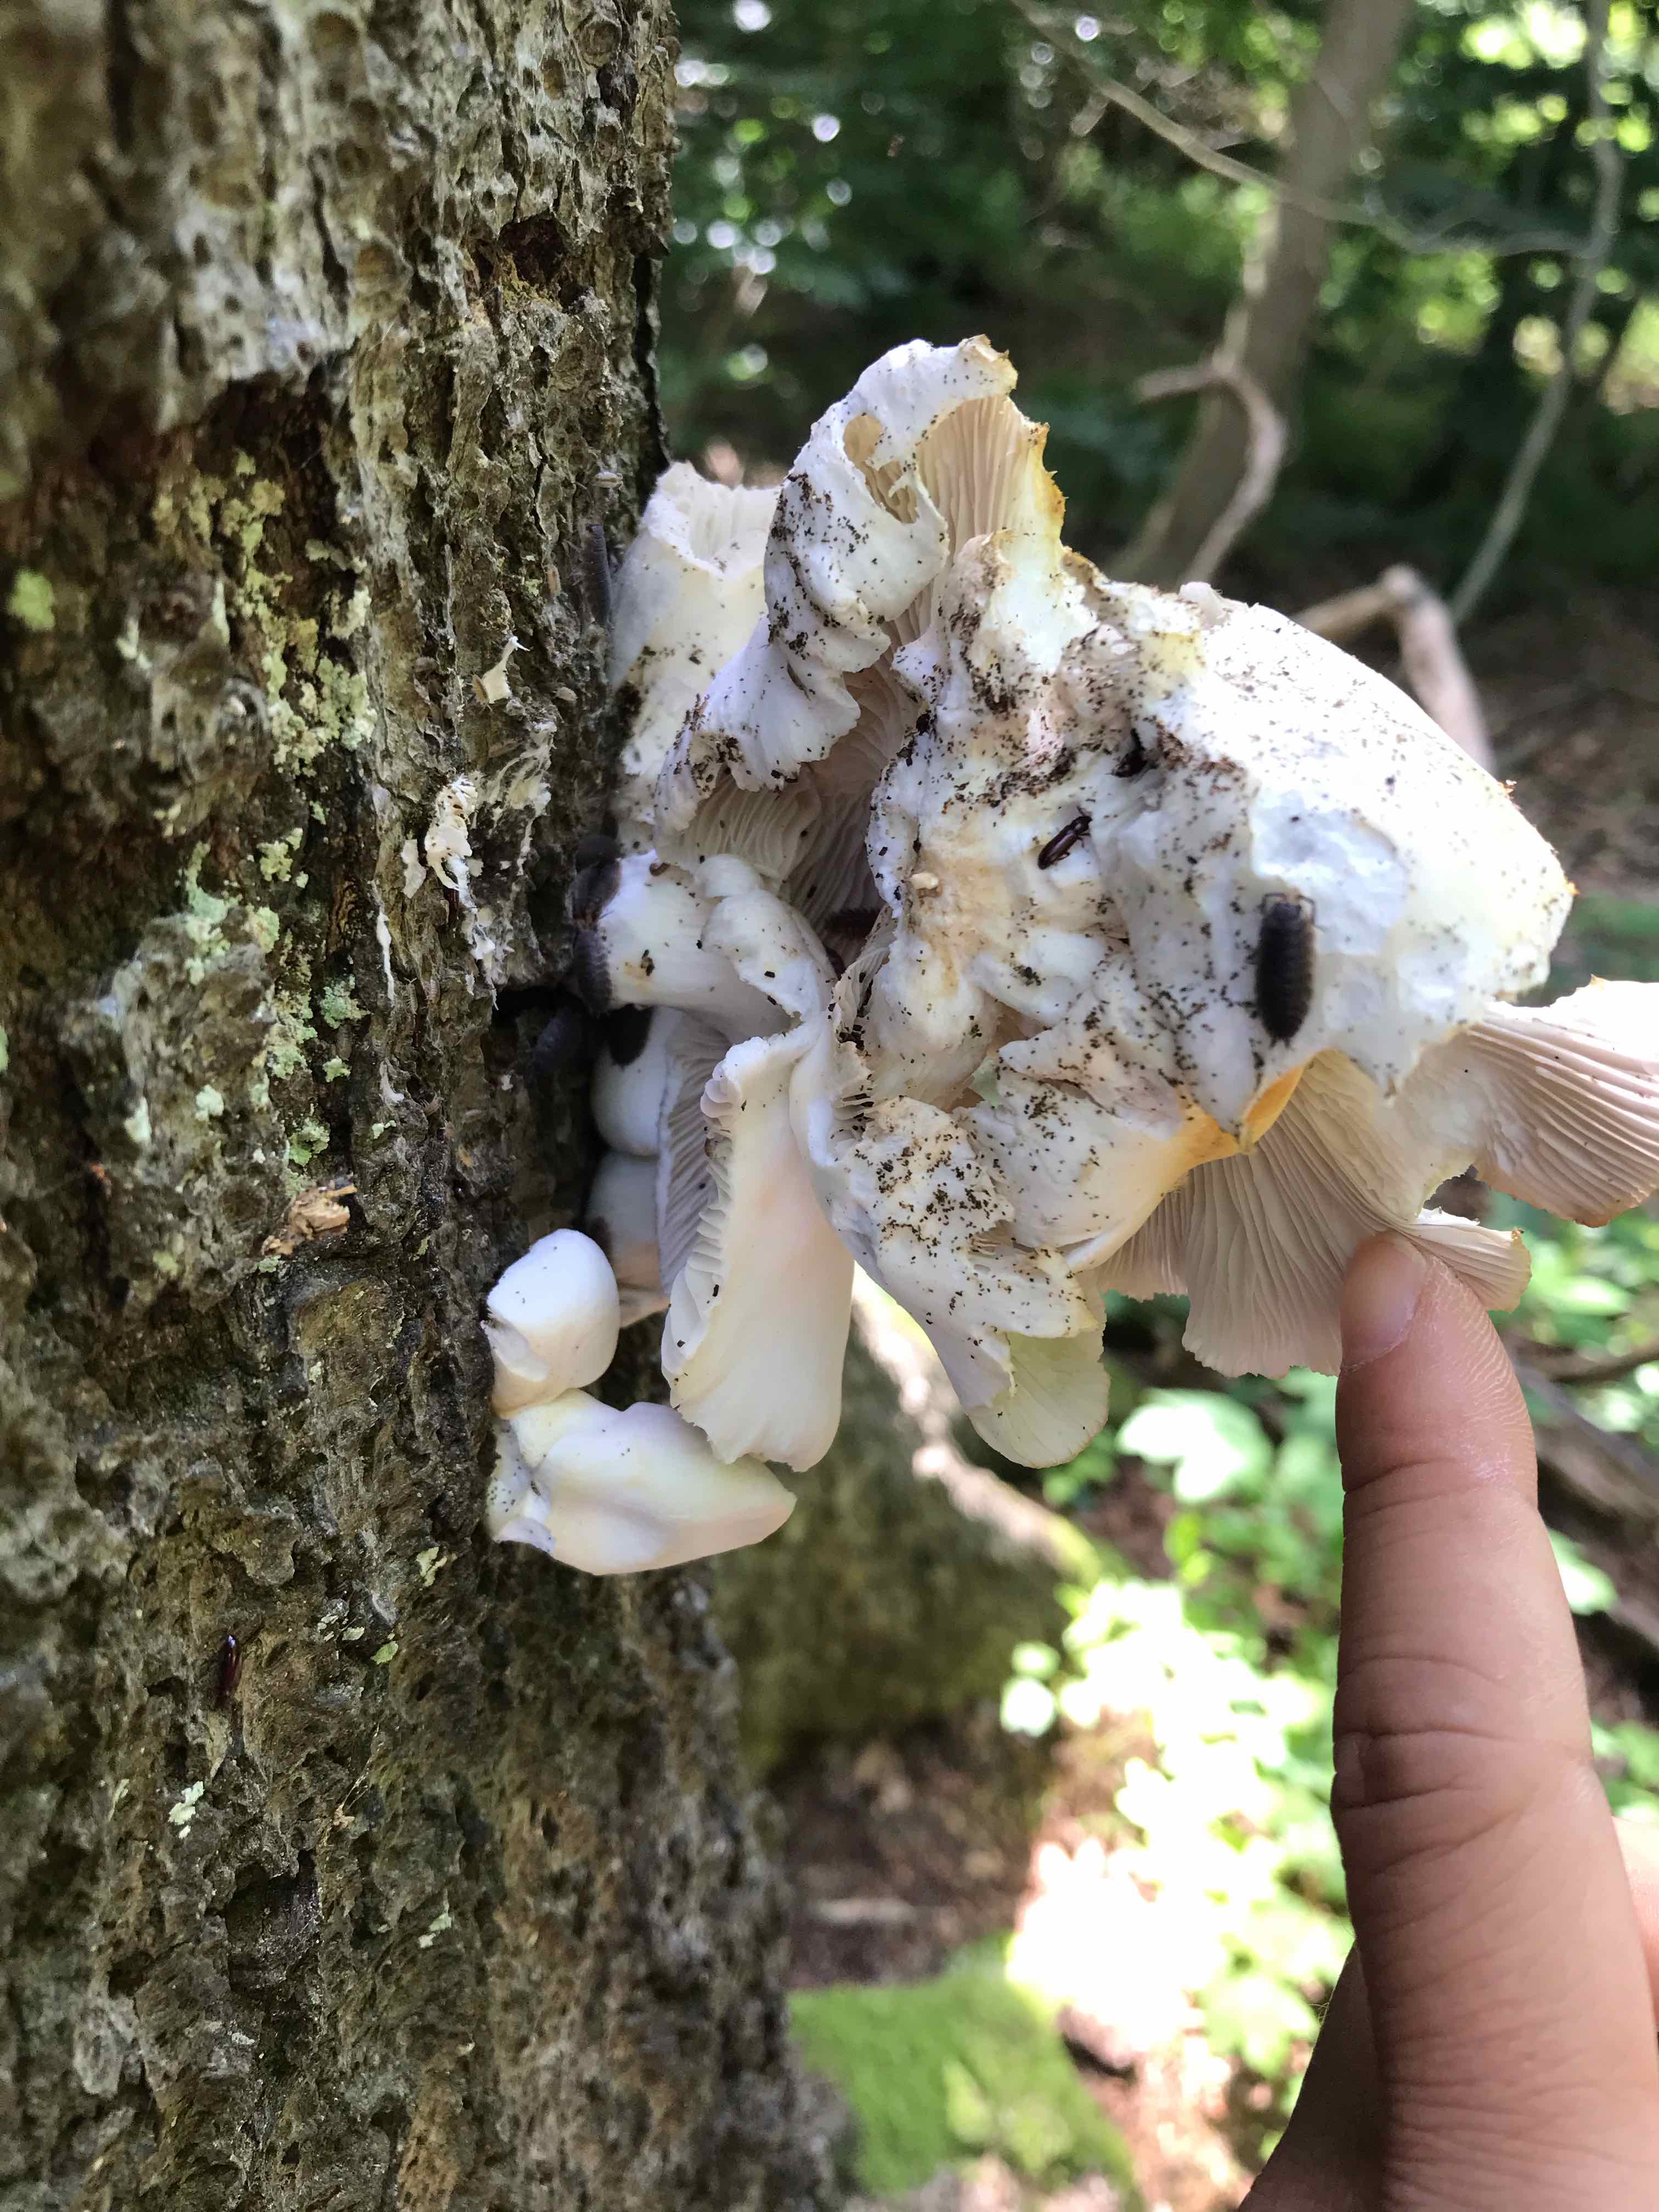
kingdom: Fungi
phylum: Basidiomycota
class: Agaricomycetes
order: Agaricales
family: Pleurotaceae
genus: Pleurotus
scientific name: Pleurotus pulmonarius
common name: sommer-østershat
